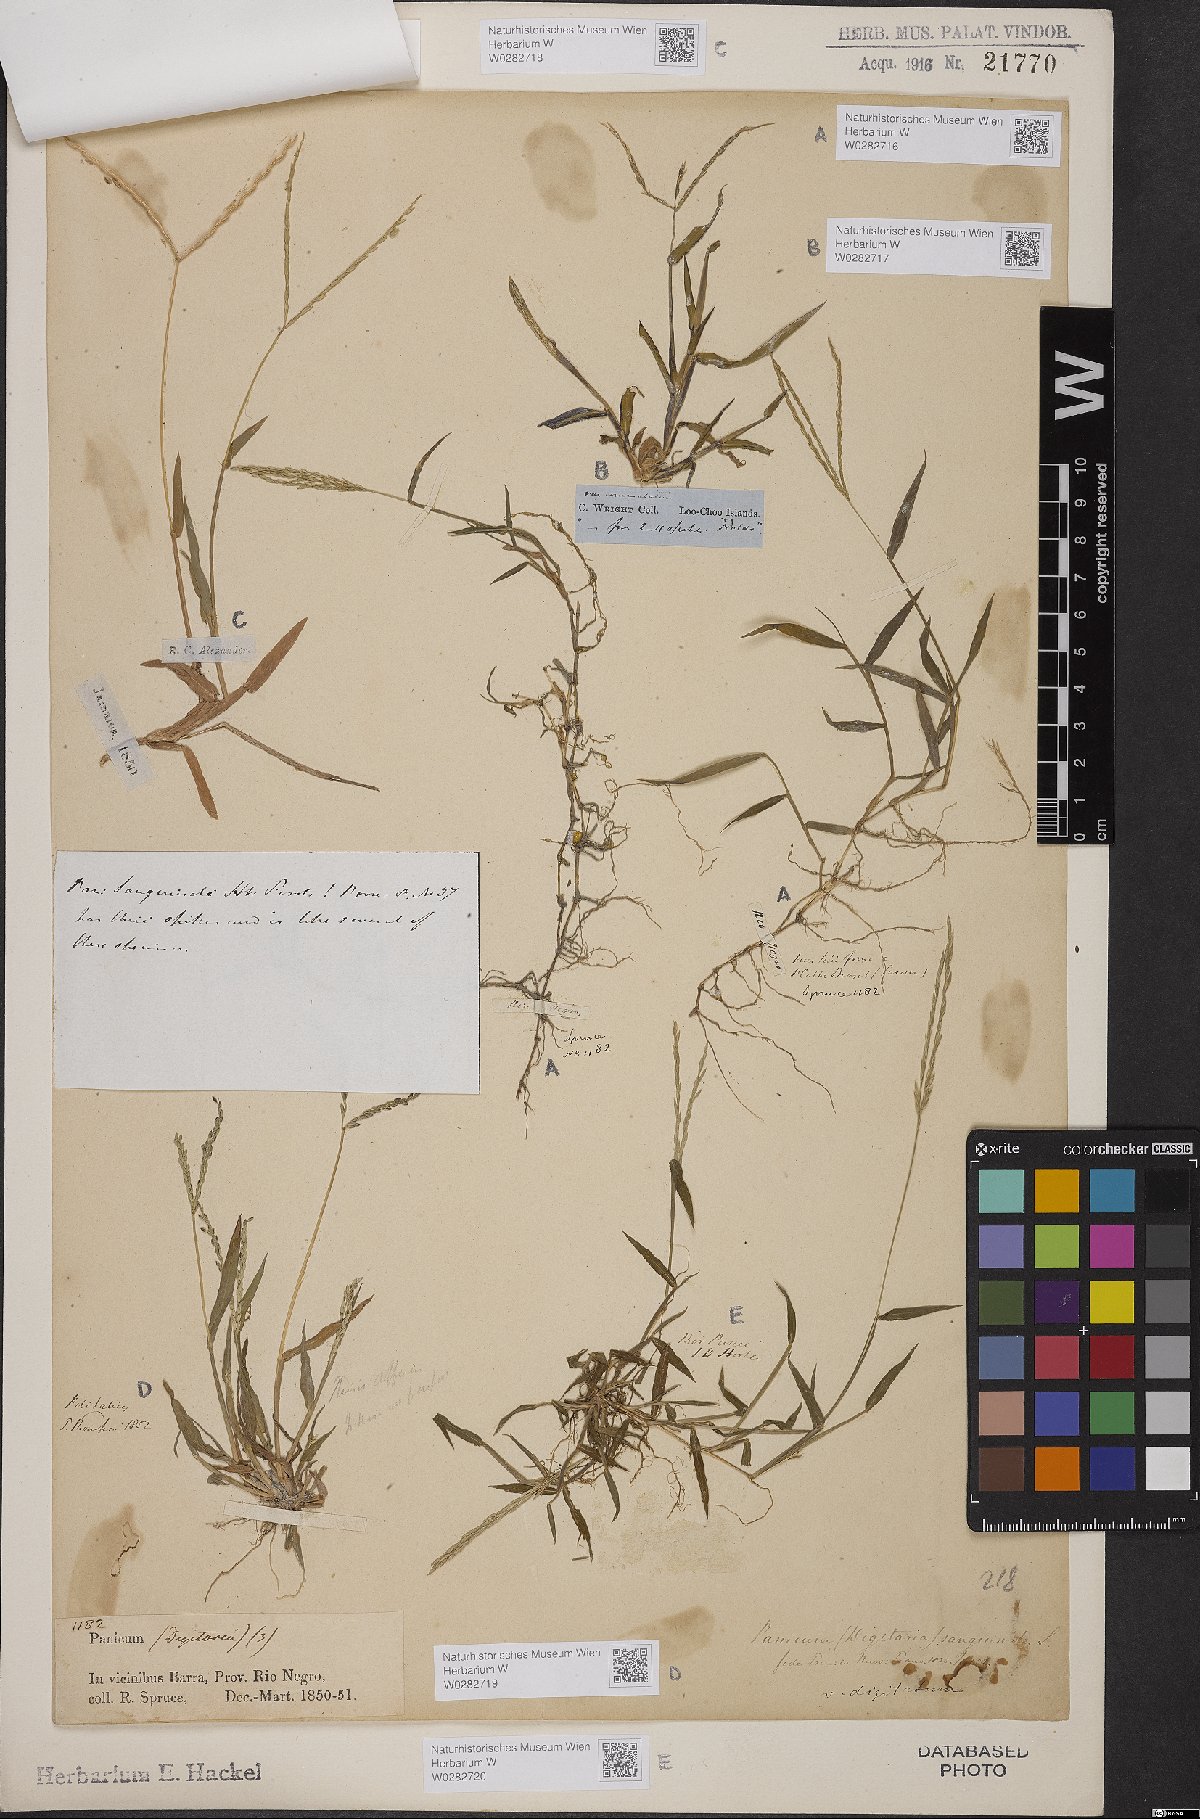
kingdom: Plantae
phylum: Tracheophyta
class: Liliopsida
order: Poales
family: Poaceae
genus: Digitaria
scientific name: Digitaria sanguinalis
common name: Hairy crabgrass
